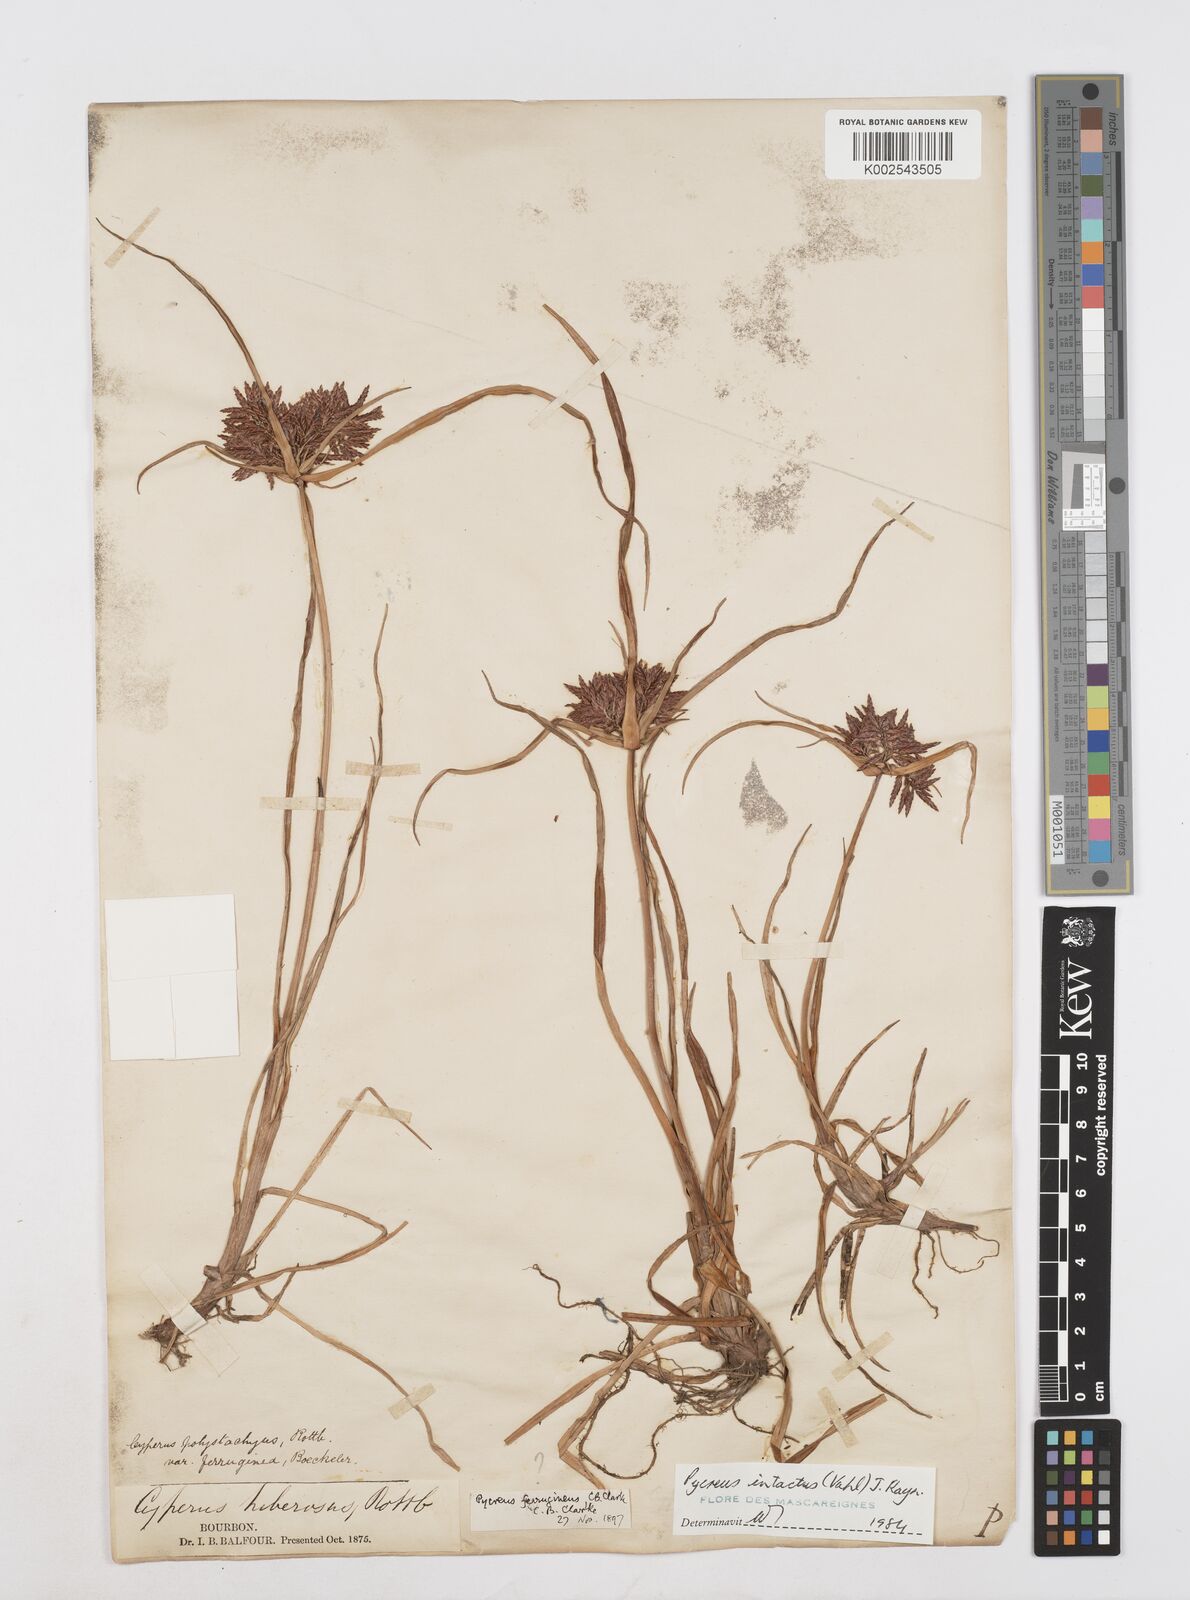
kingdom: Plantae
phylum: Tracheophyta
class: Liliopsida
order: Poales
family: Cyperaceae
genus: Cyperus
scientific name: Cyperus intactus
